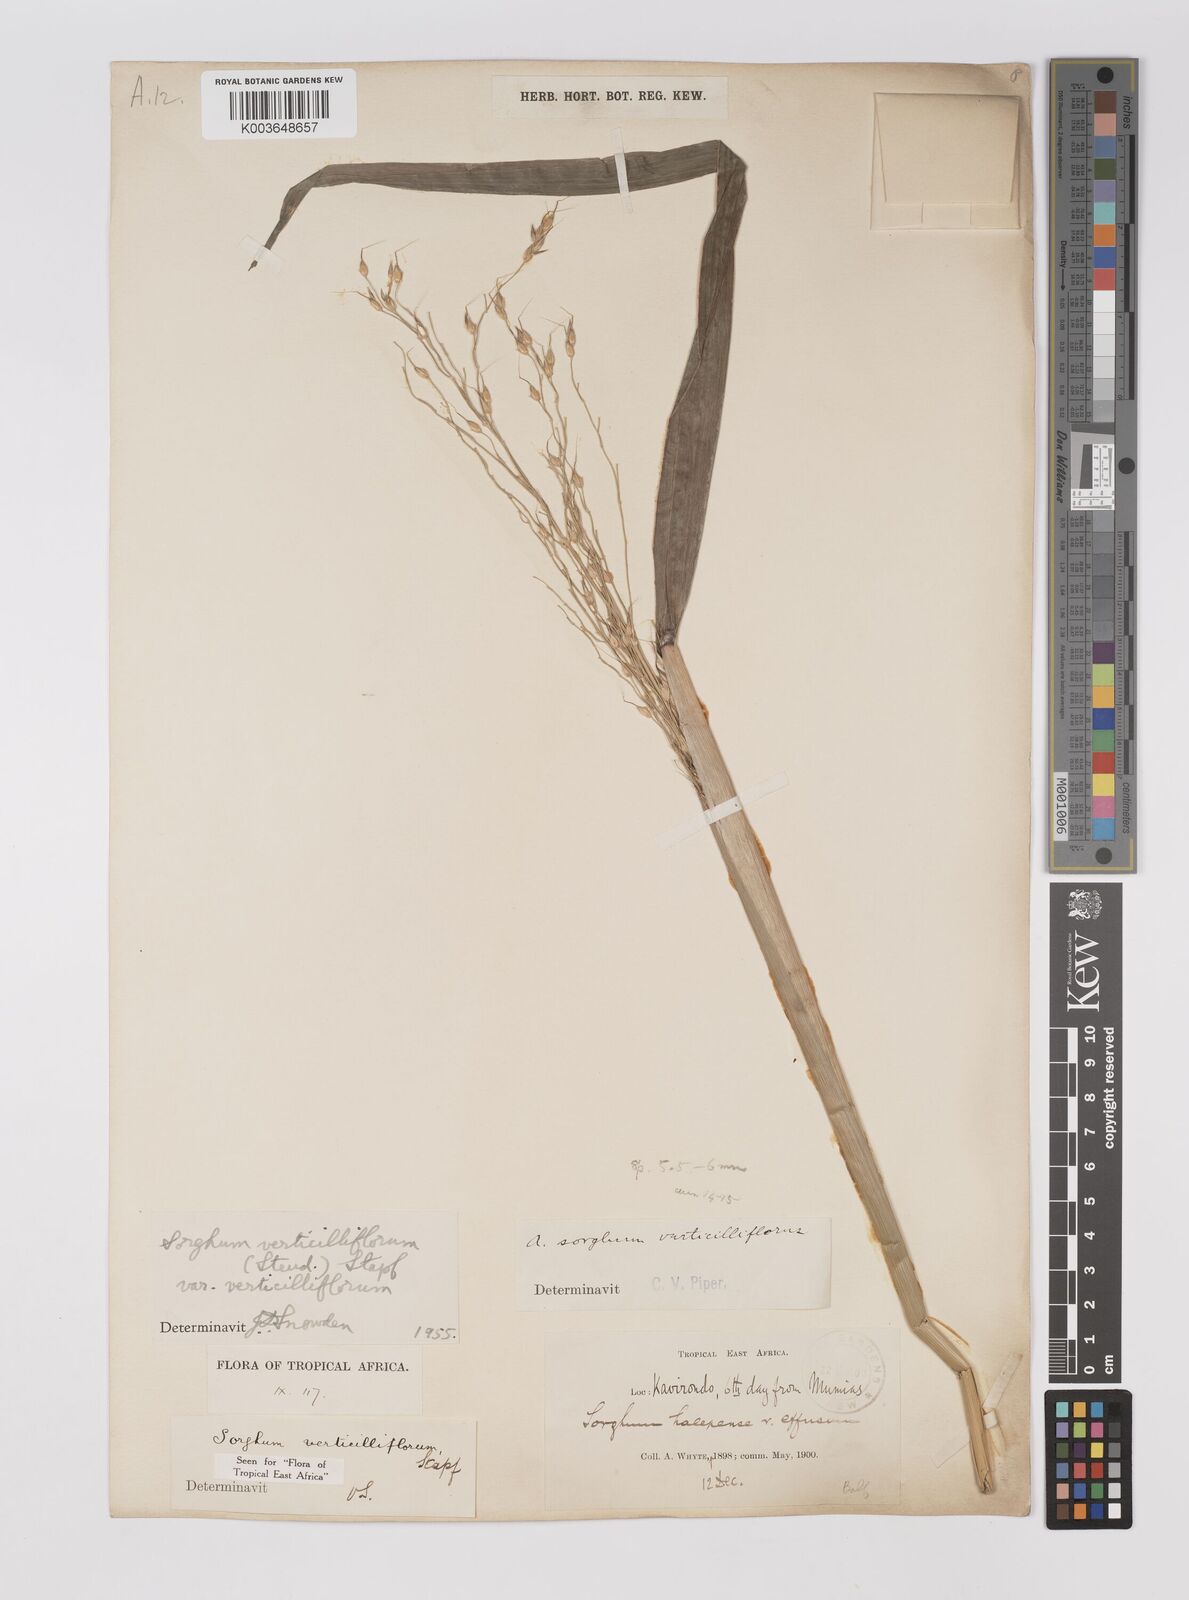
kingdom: Plantae
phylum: Tracheophyta
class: Liliopsida
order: Poales
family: Poaceae
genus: Sorghum
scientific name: Sorghum arundinaceum
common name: Sorghum
